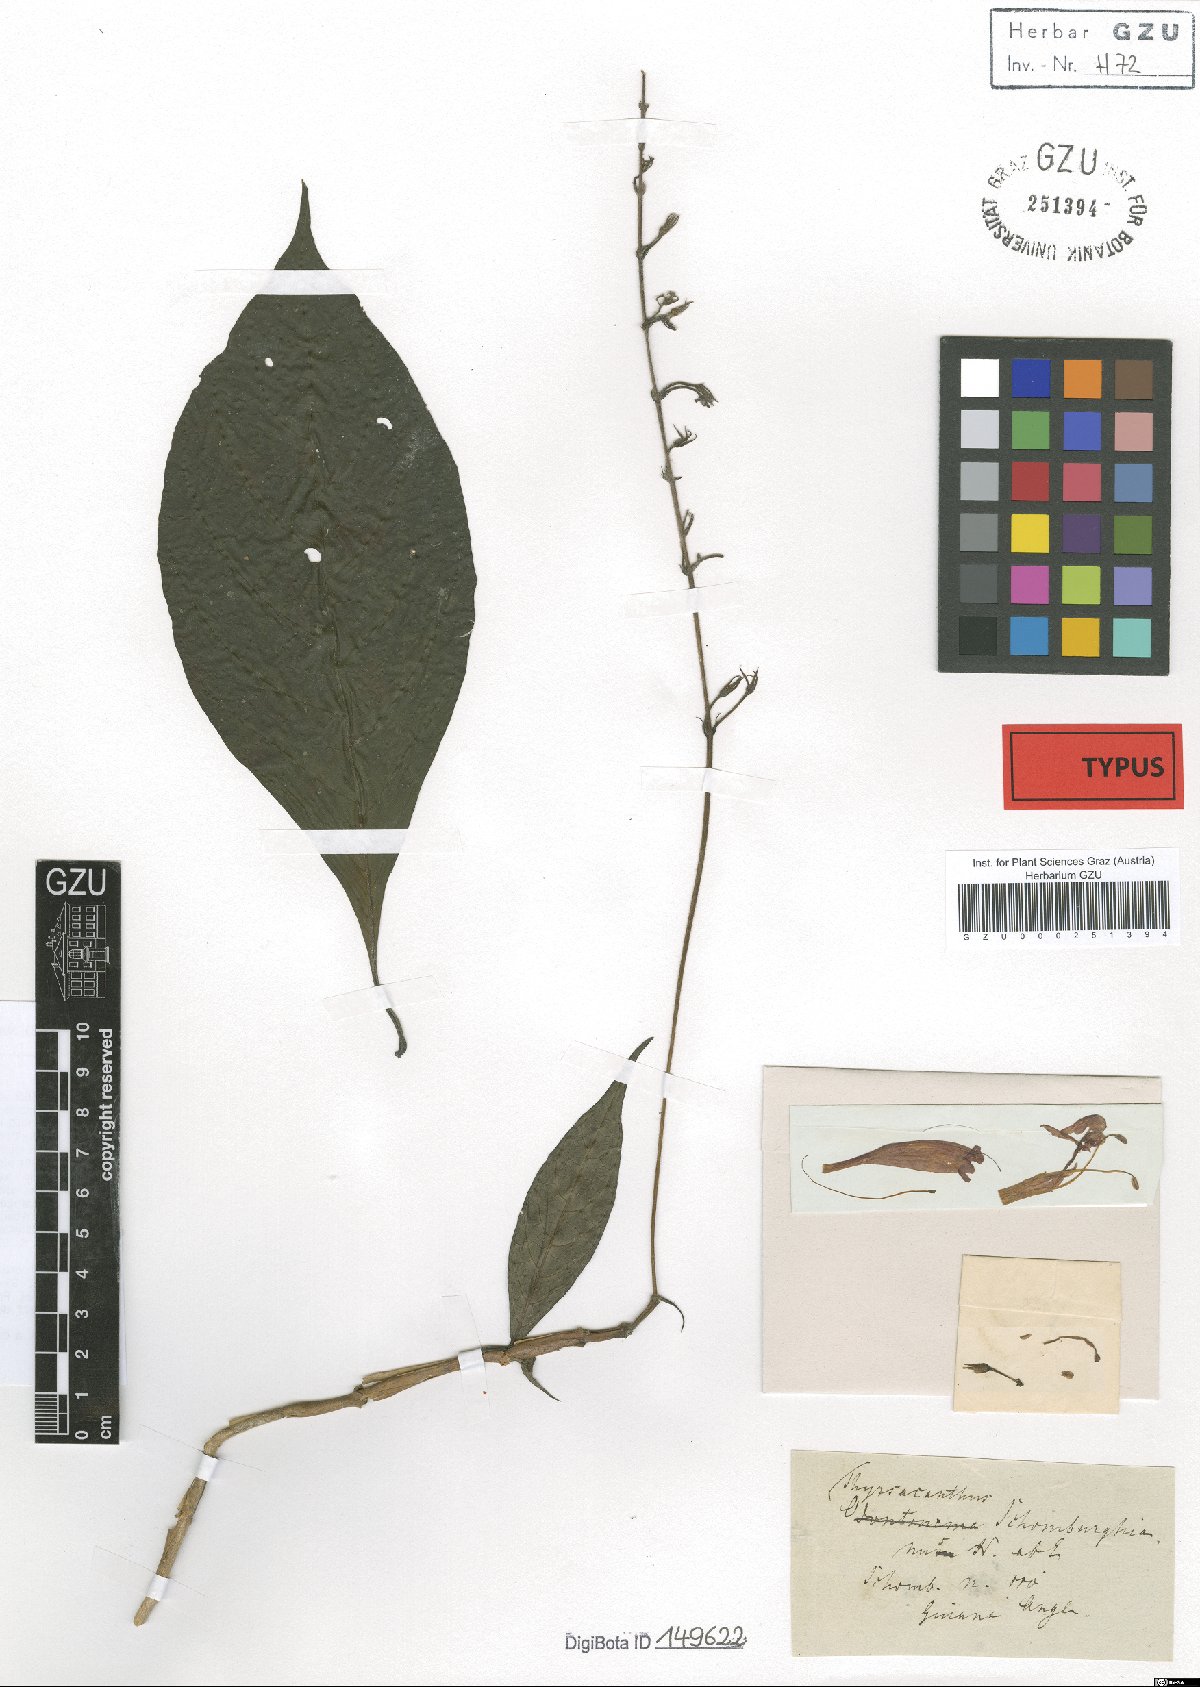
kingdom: Plantae
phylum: Tracheophyta
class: Magnoliopsida
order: Lamiales
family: Acanthaceae
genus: Odontonema
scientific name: Odontonema schomburgkianum
